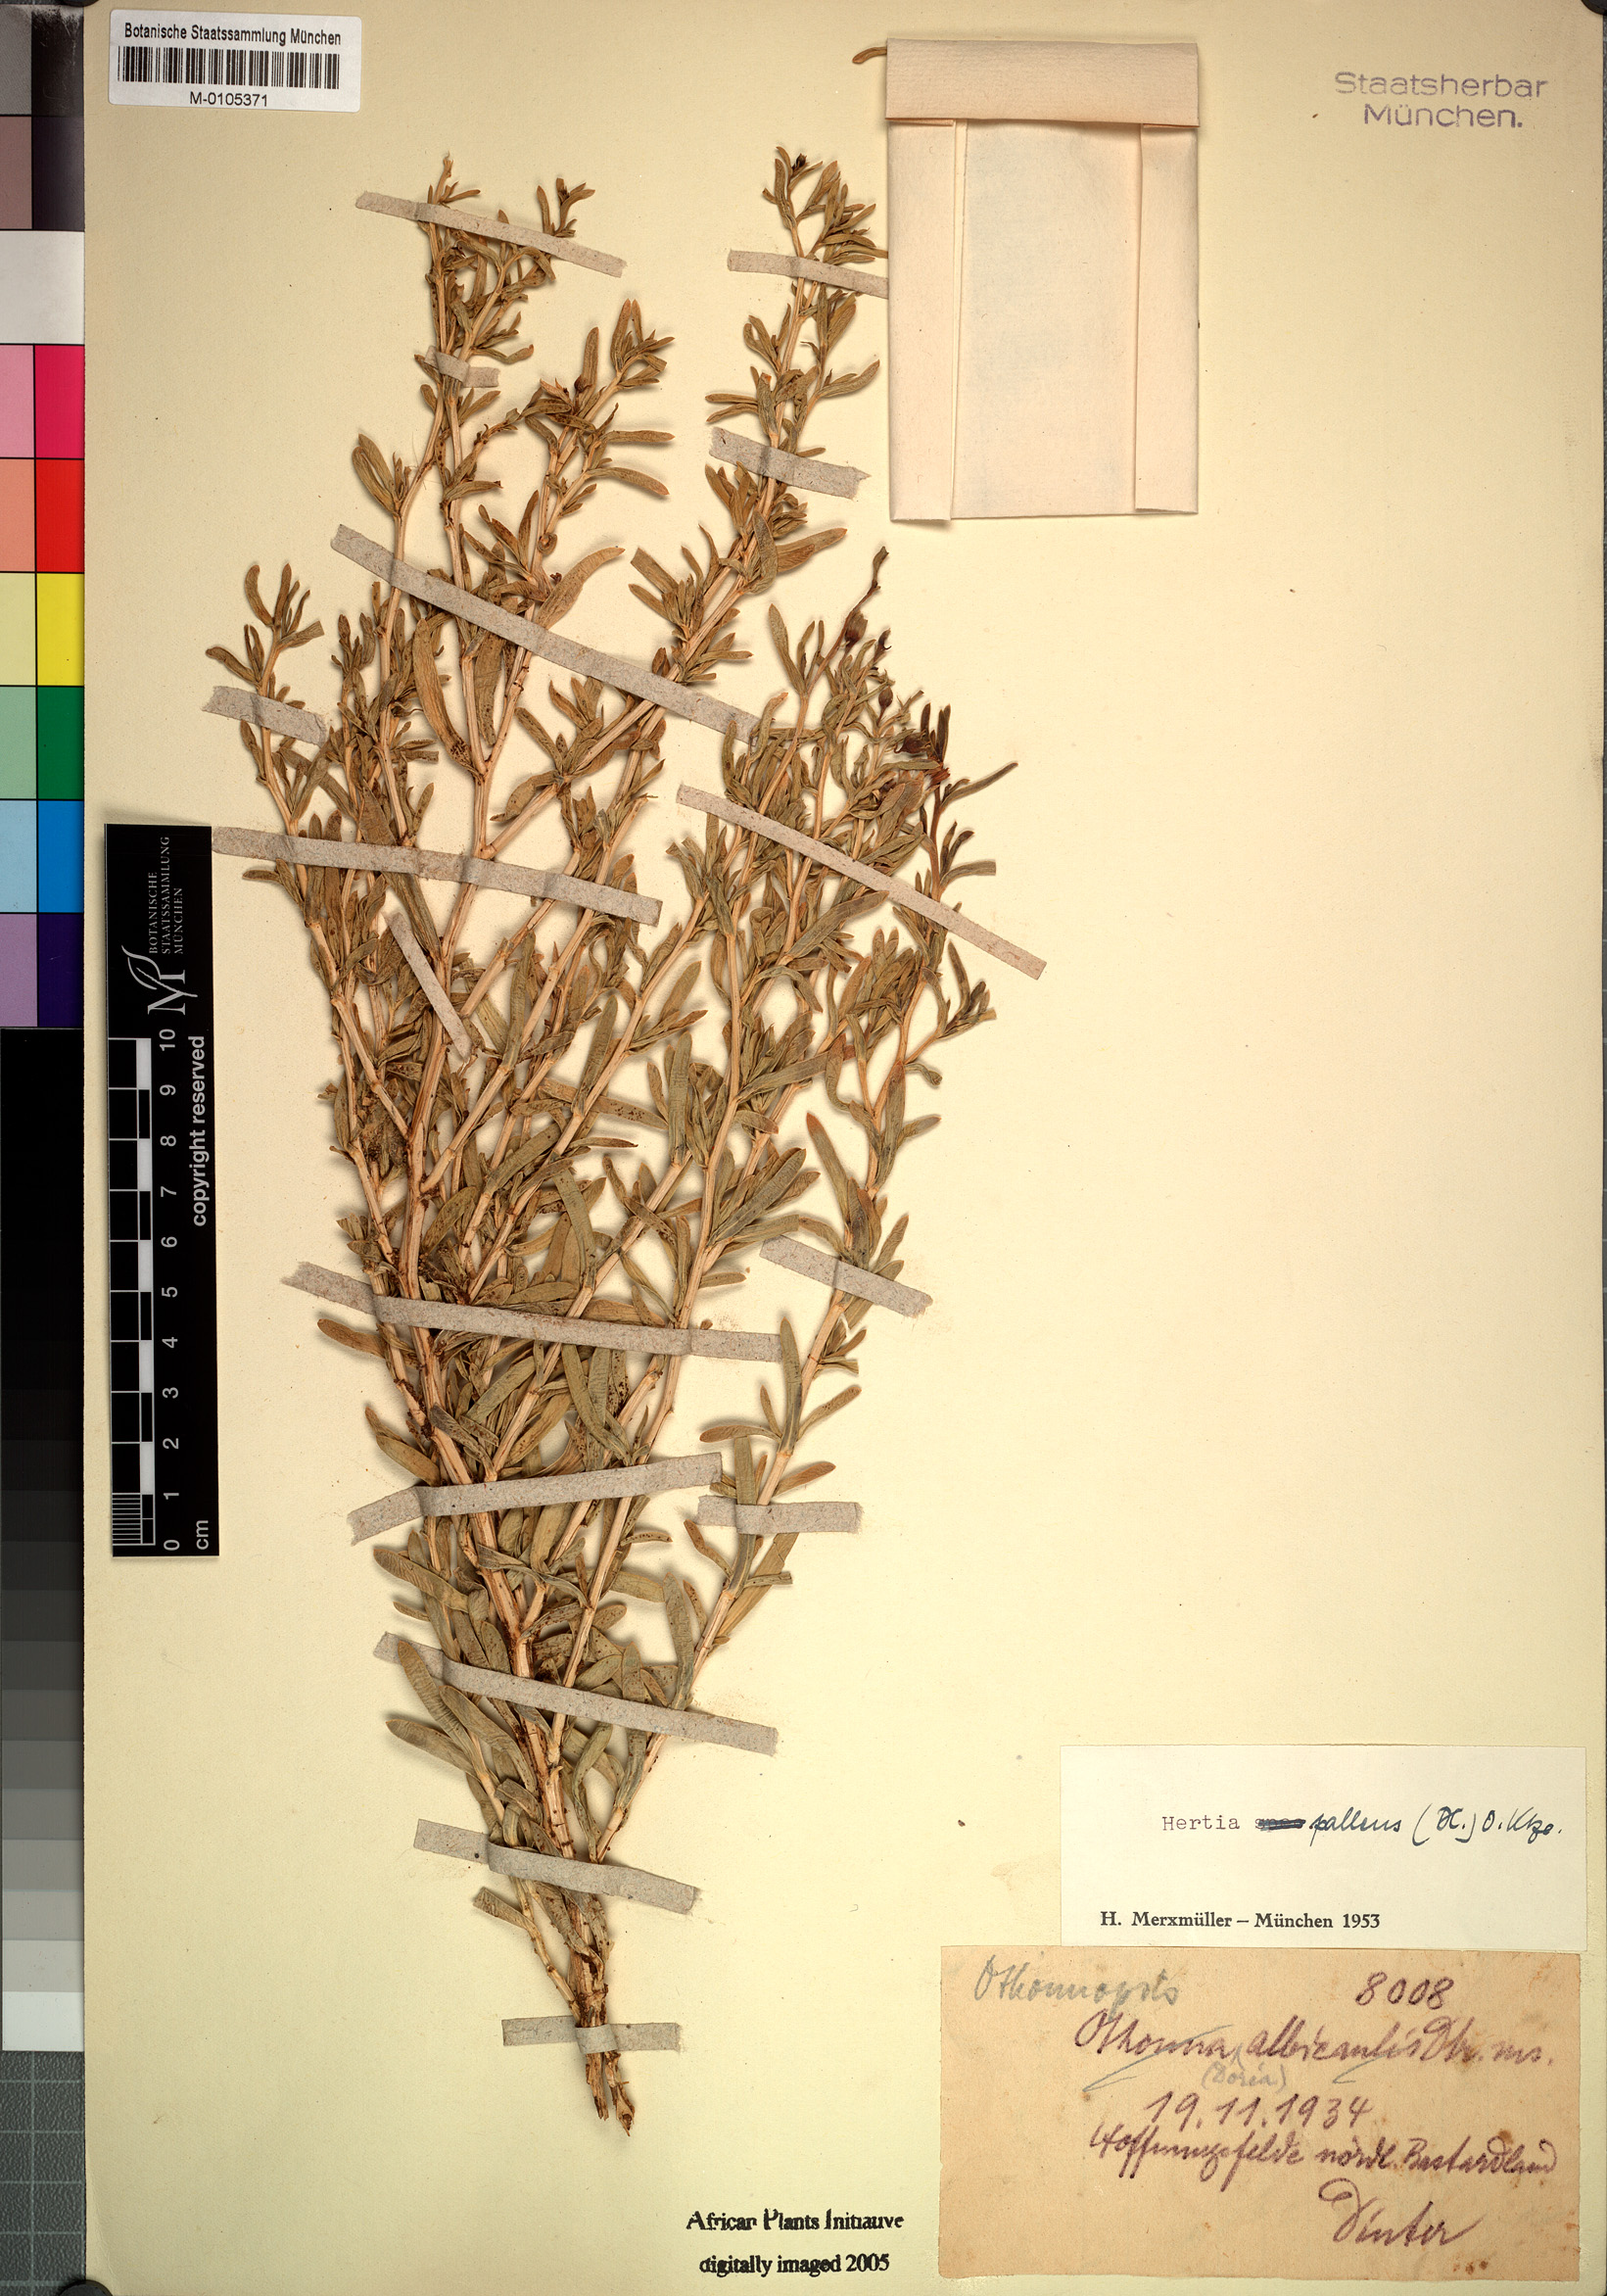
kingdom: Plantae
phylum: Tracheophyta
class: Magnoliopsida
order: Asterales
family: Asteraceae
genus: Hertia
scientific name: Hertia pallens
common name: Springbokbush
